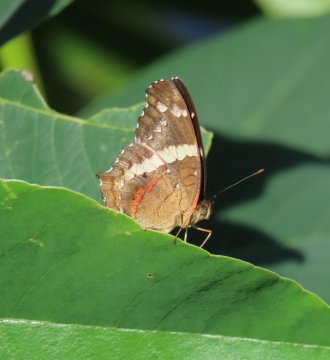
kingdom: Animalia
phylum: Arthropoda
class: Insecta
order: Lepidoptera
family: Nymphalidae
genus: Anartia
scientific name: Anartia fatima
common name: Banded Peacock
